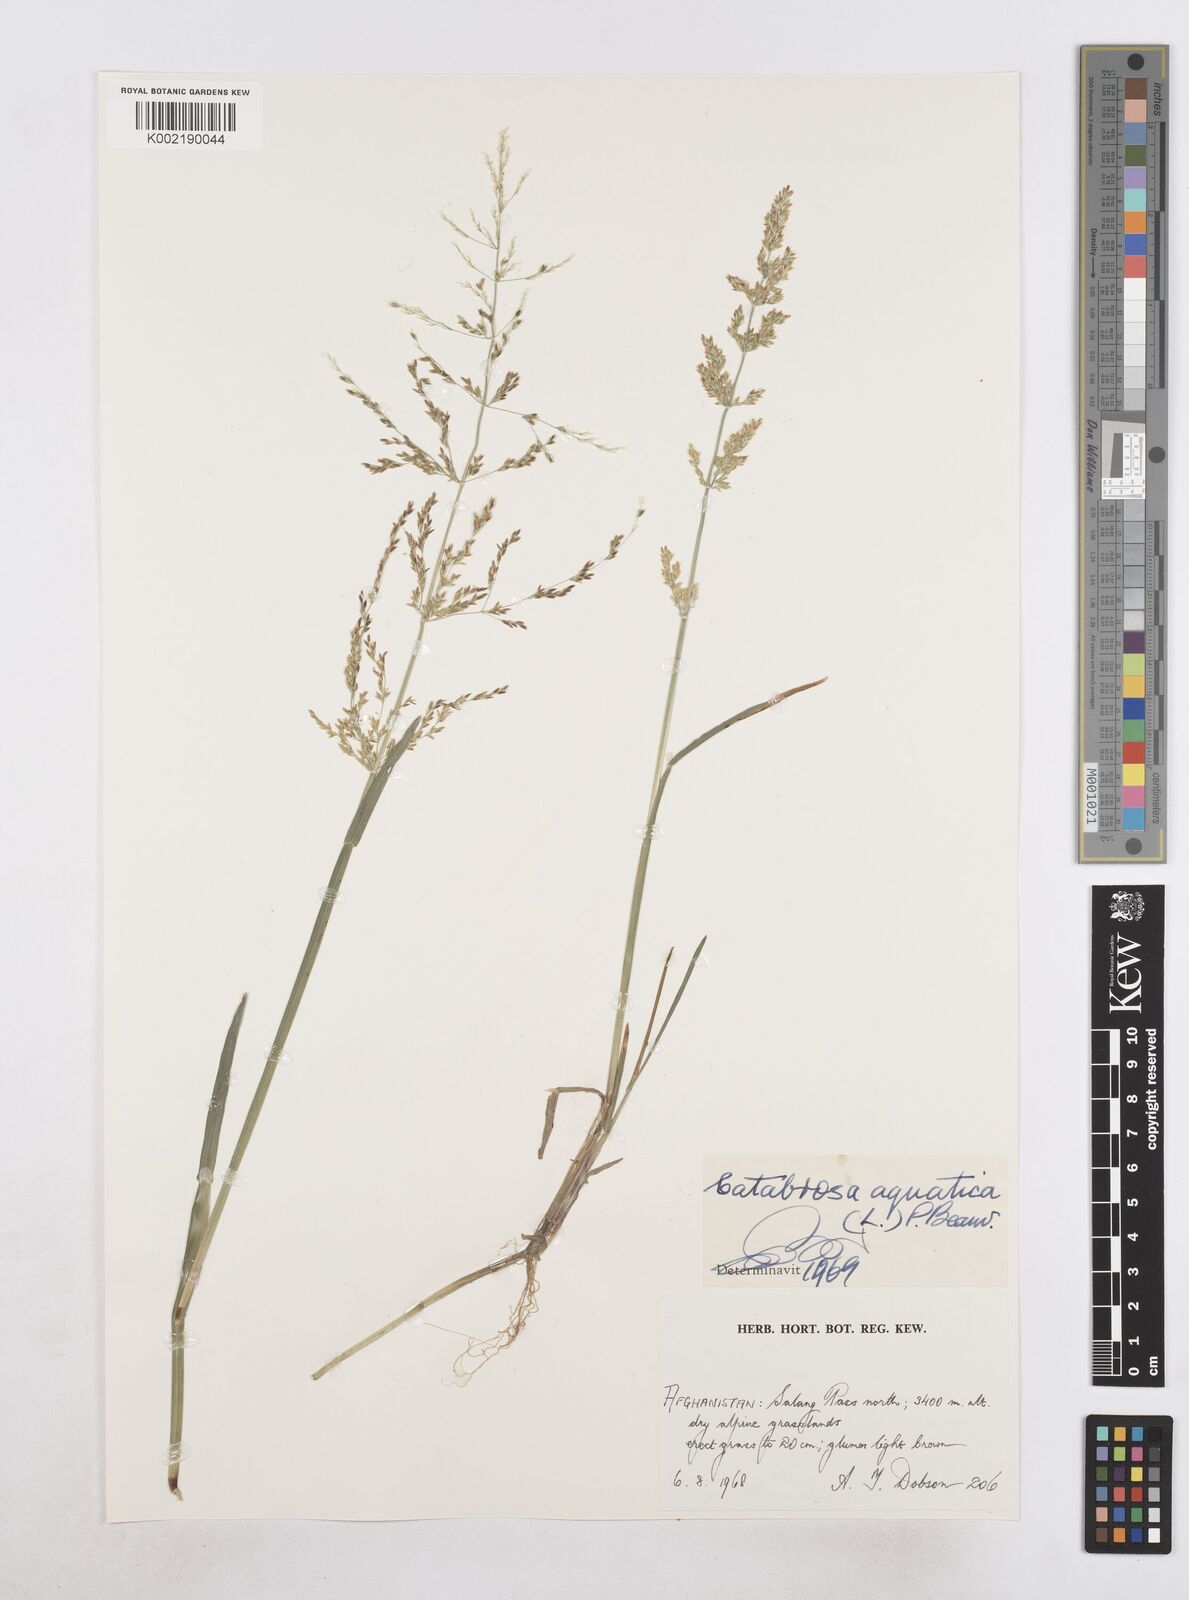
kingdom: Plantae
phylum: Tracheophyta
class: Liliopsida
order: Poales
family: Poaceae
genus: Catabrosa
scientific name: Catabrosa aquatica
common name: Whorl-grass
